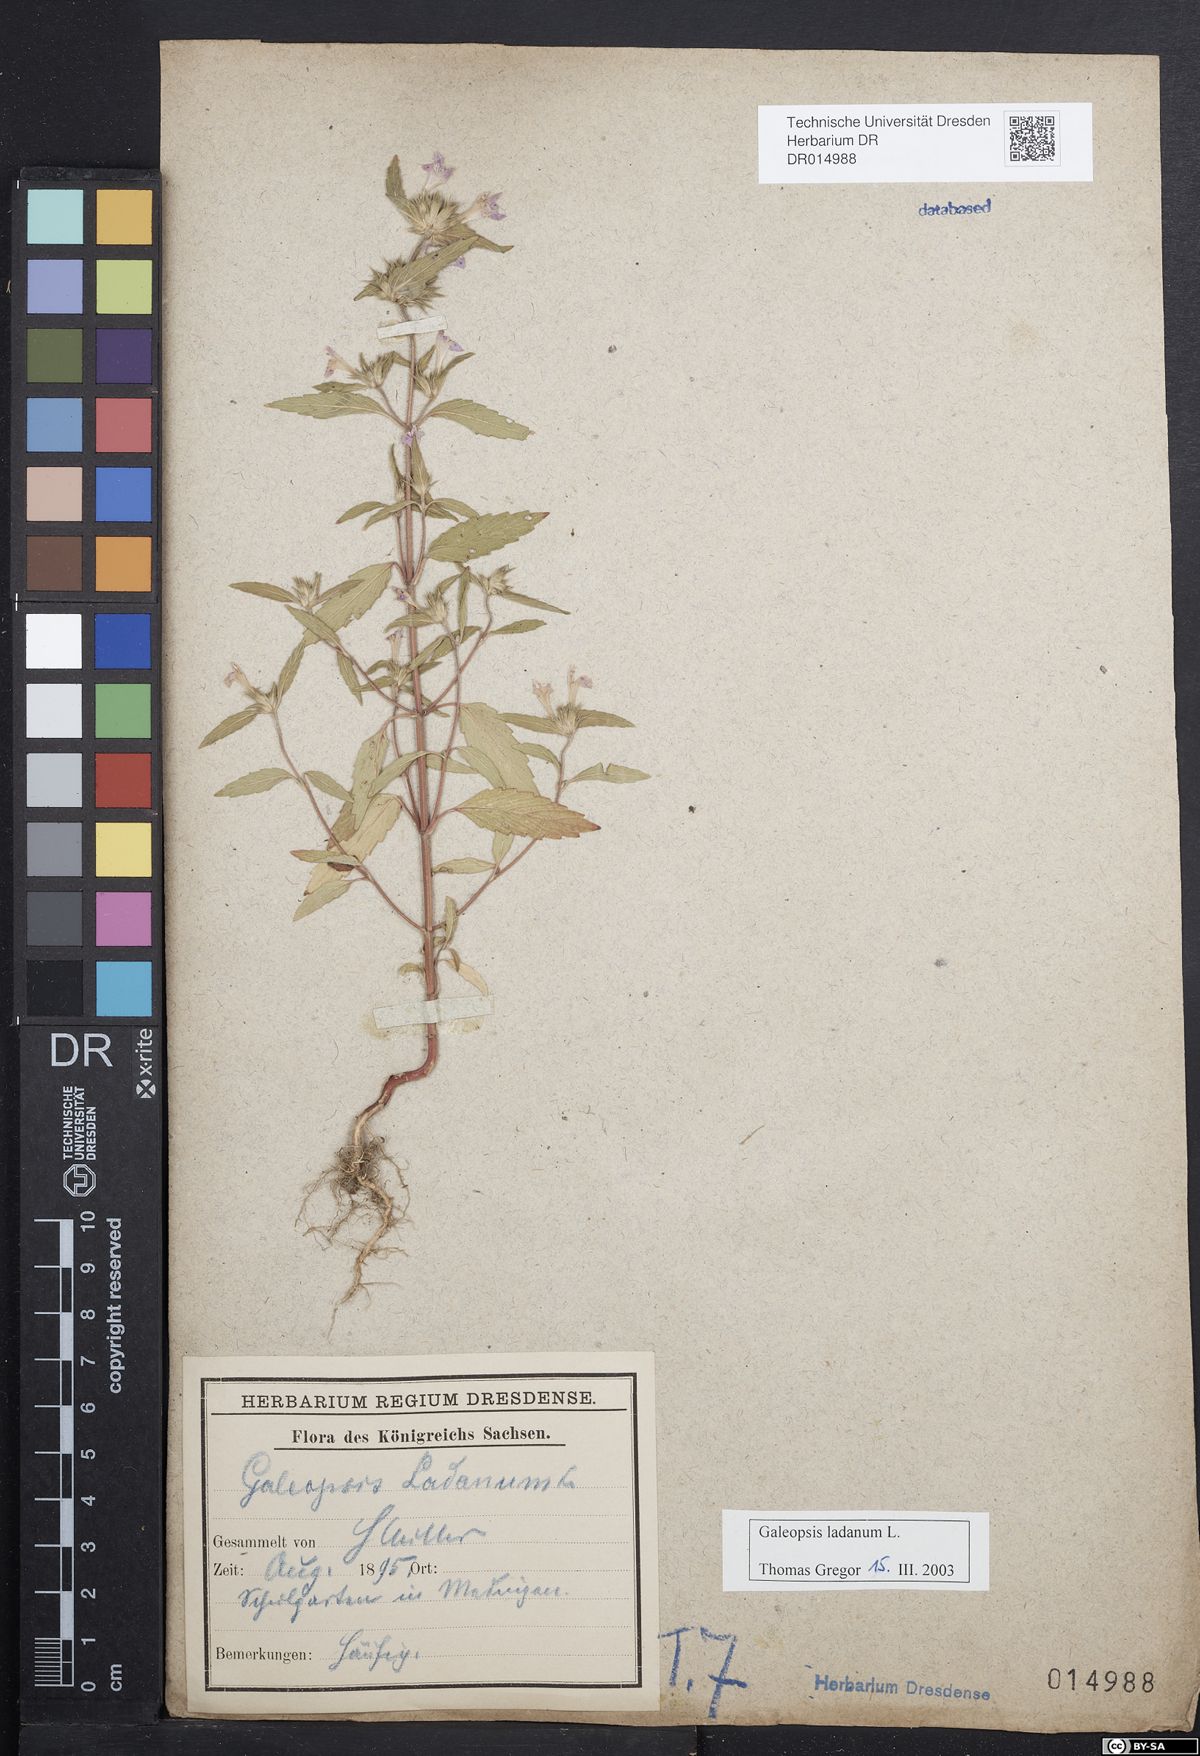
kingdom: Plantae
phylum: Tracheophyta
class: Magnoliopsida
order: Lamiales
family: Lamiaceae
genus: Galeopsis
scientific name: Galeopsis ladanum
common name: Broad-leaved hemp-nettle
